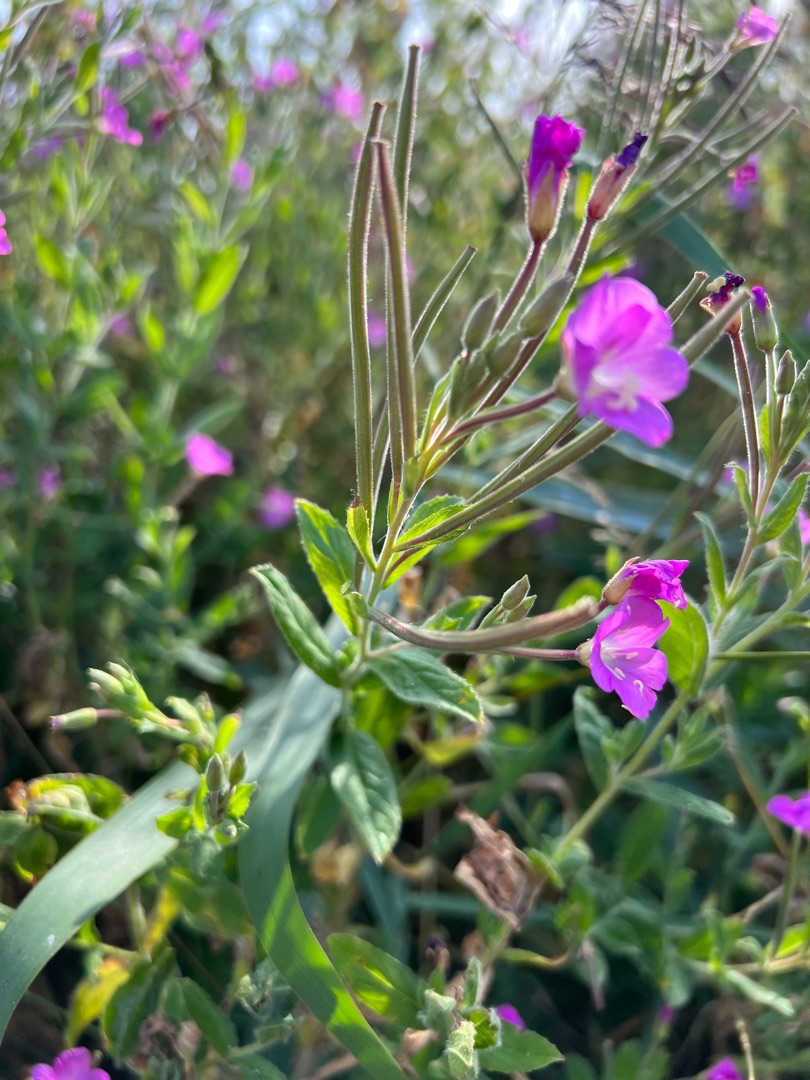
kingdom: Plantae
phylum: Tracheophyta
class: Magnoliopsida
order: Myrtales
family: Onagraceae
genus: Epilobium
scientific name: Epilobium hirsutum
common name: Lådden dueurt
